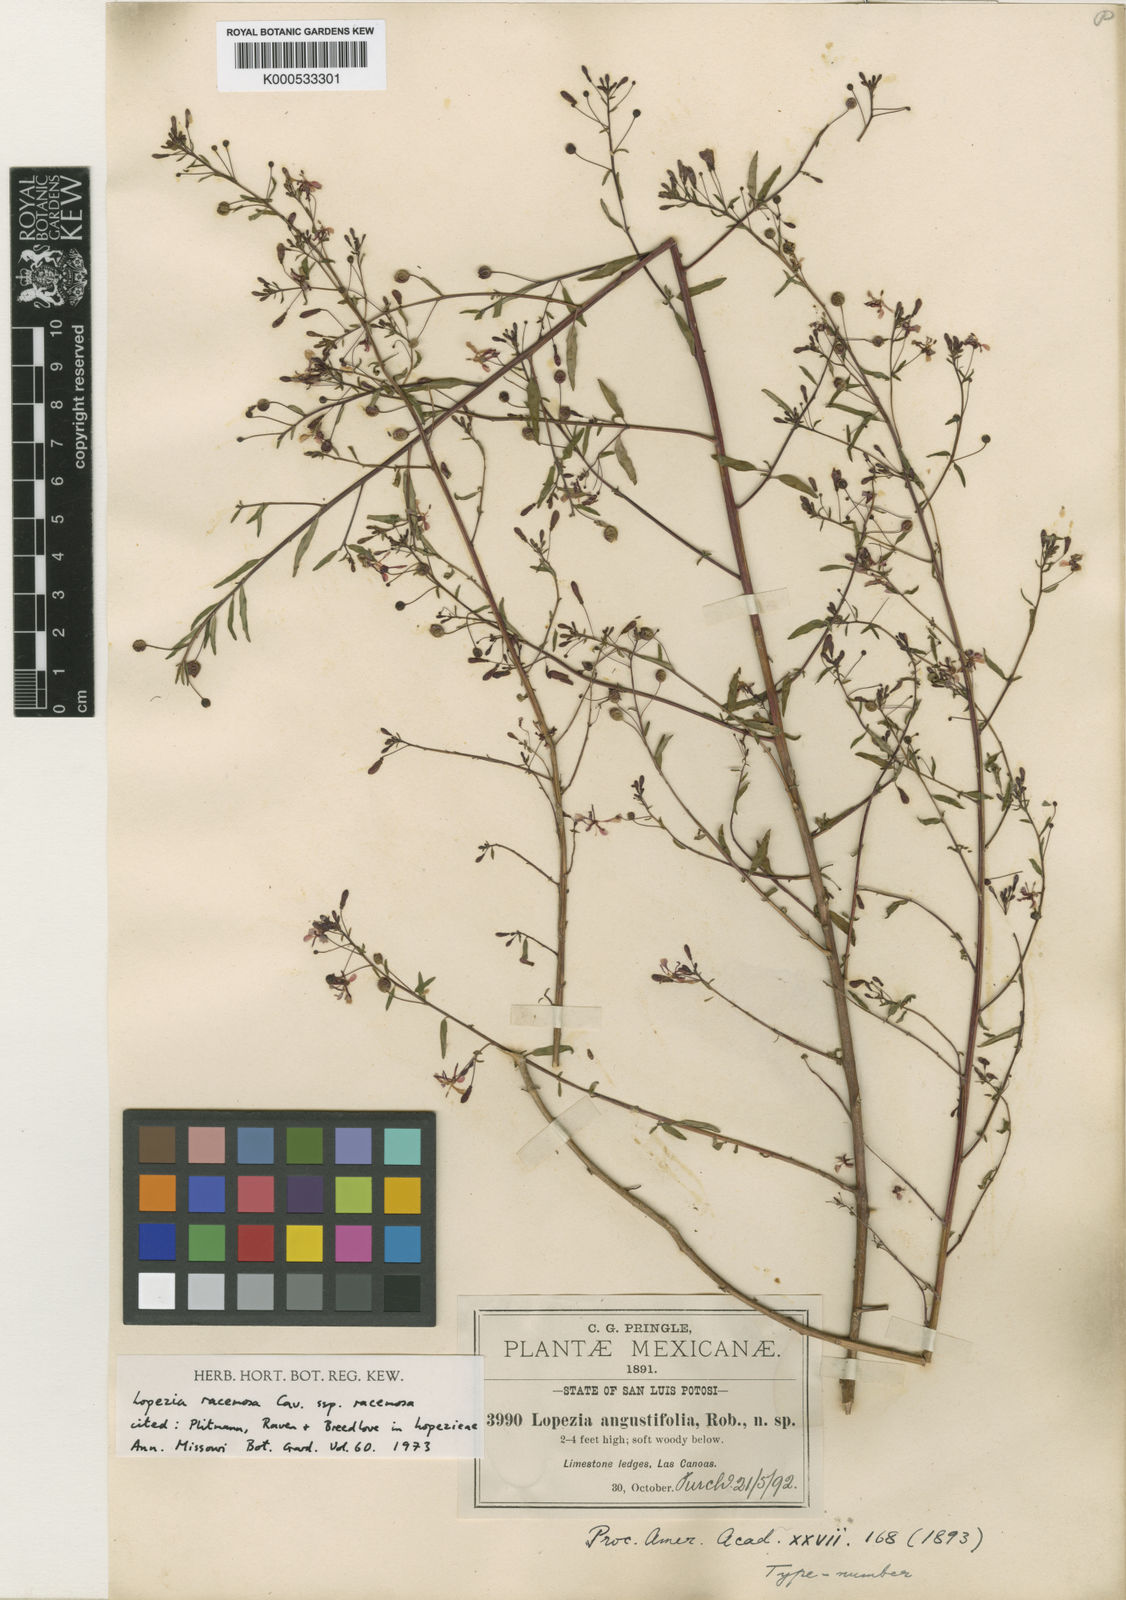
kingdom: Plantae
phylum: Tracheophyta
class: Magnoliopsida
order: Myrtales
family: Onagraceae
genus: Lopezia
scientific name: Lopezia racemosa
